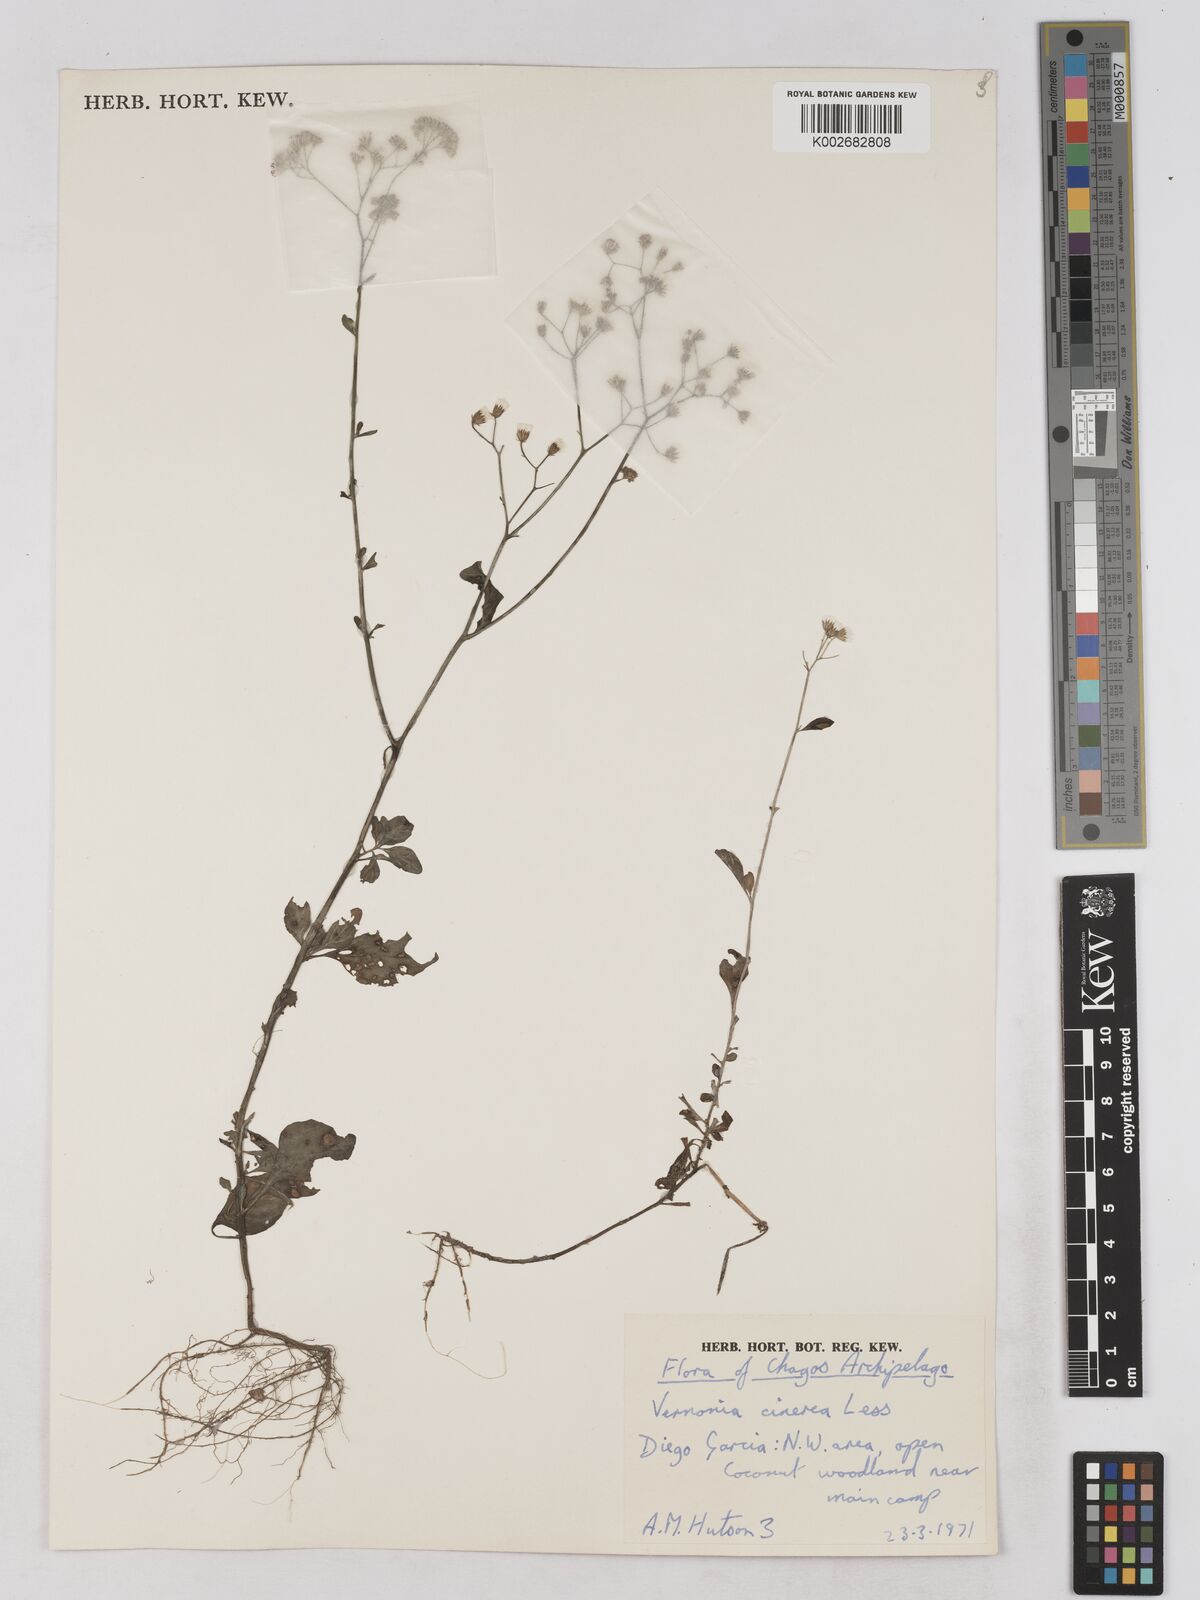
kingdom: Plantae
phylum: Tracheophyta
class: Magnoliopsida
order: Asterales
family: Asteraceae
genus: Cyanthillium
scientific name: Cyanthillium cinereum
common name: Little ironweed
